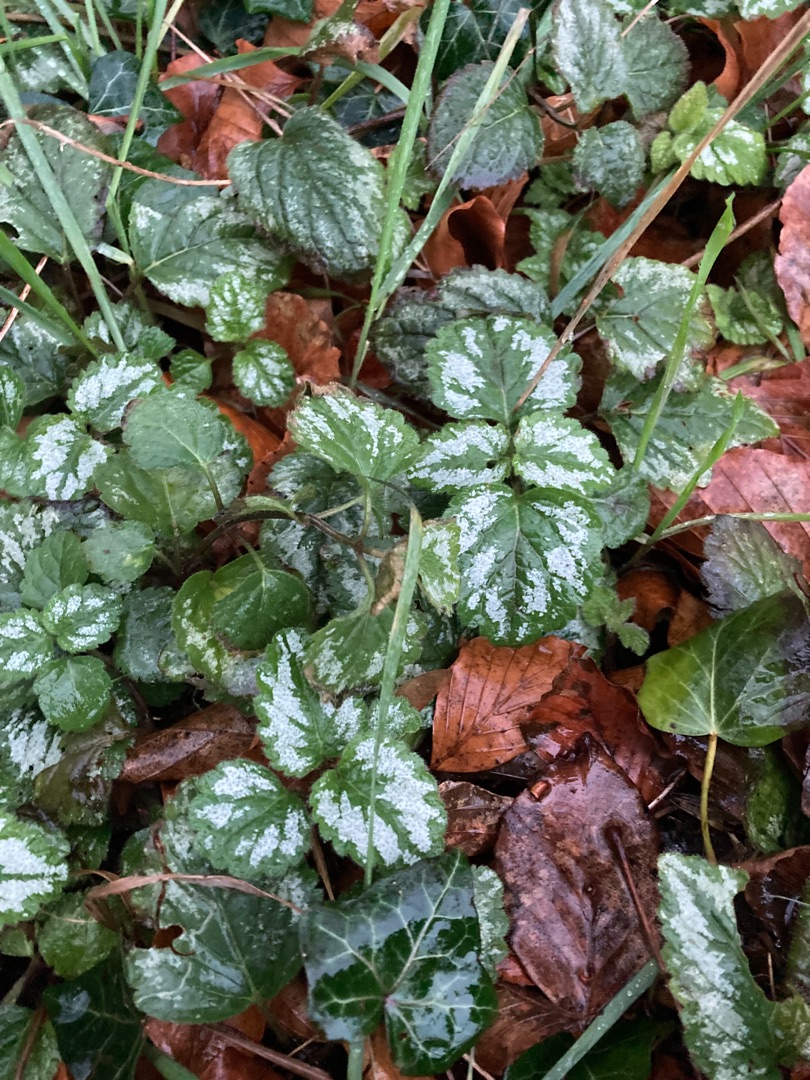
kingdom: Plantae
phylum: Tracheophyta
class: Magnoliopsida
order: Lamiales
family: Lamiaceae
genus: Lamium
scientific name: Lamium galeobdolon
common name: Have-guldnælde
